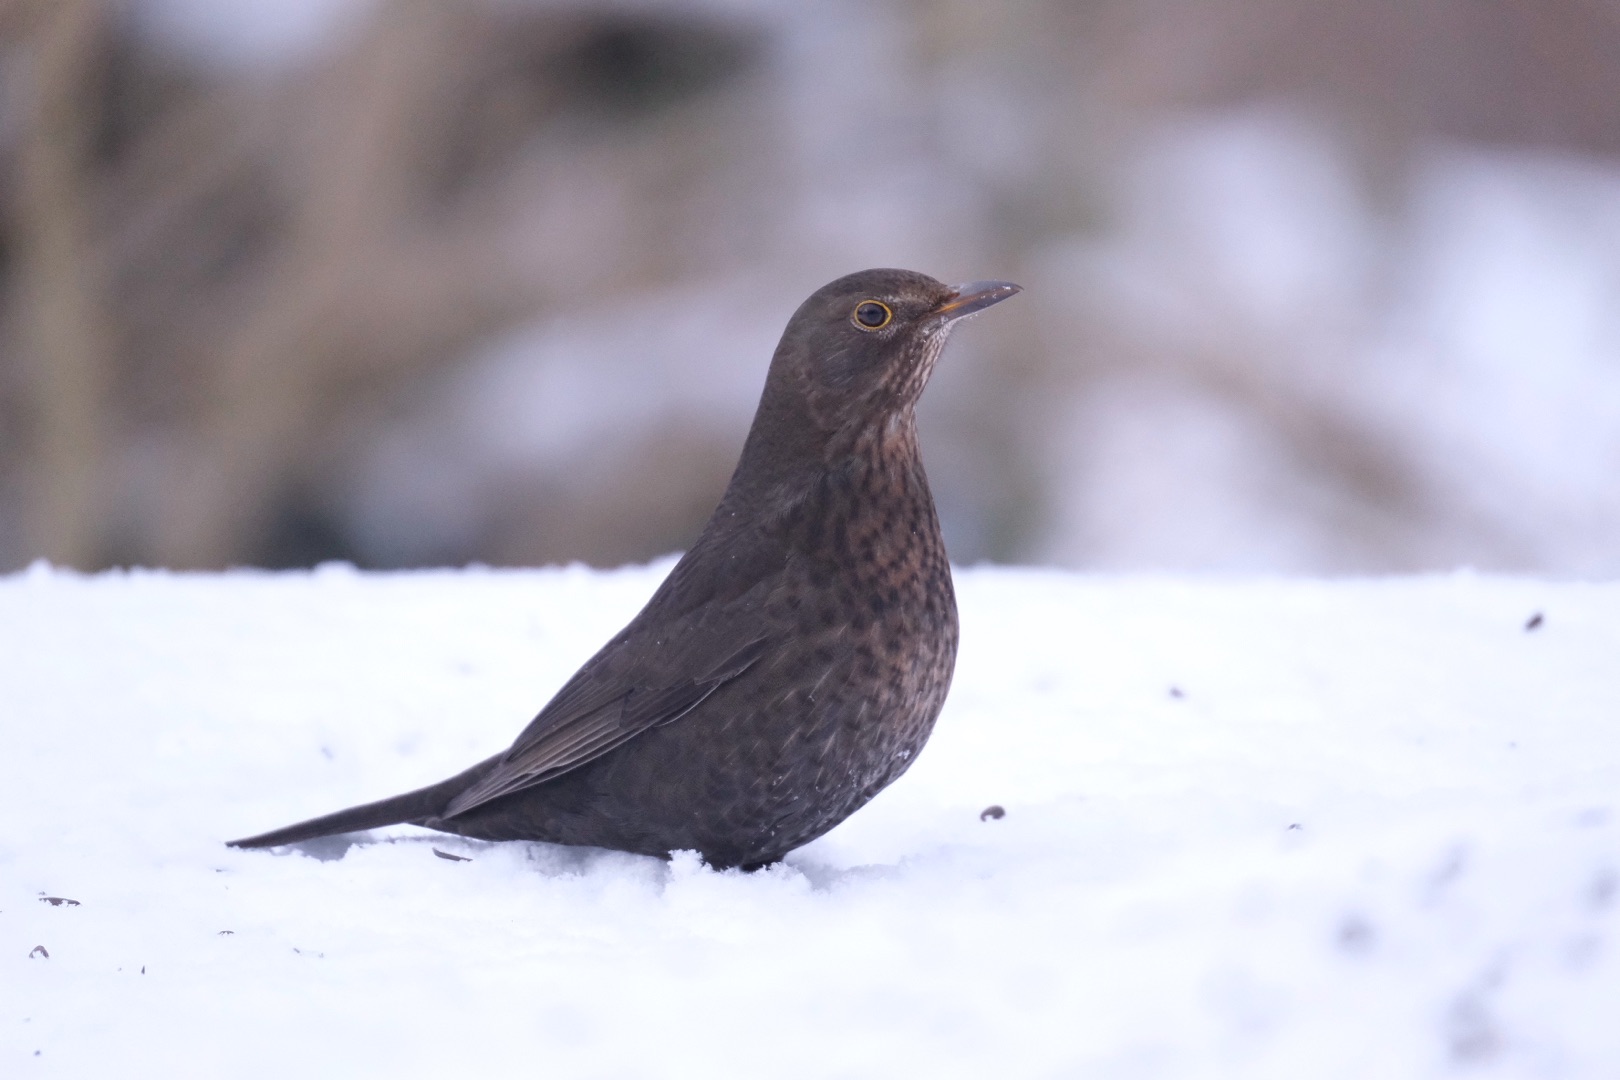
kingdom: Animalia
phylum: Chordata
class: Aves
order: Passeriformes
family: Turdidae
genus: Turdus
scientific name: Turdus merula
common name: Solsort
